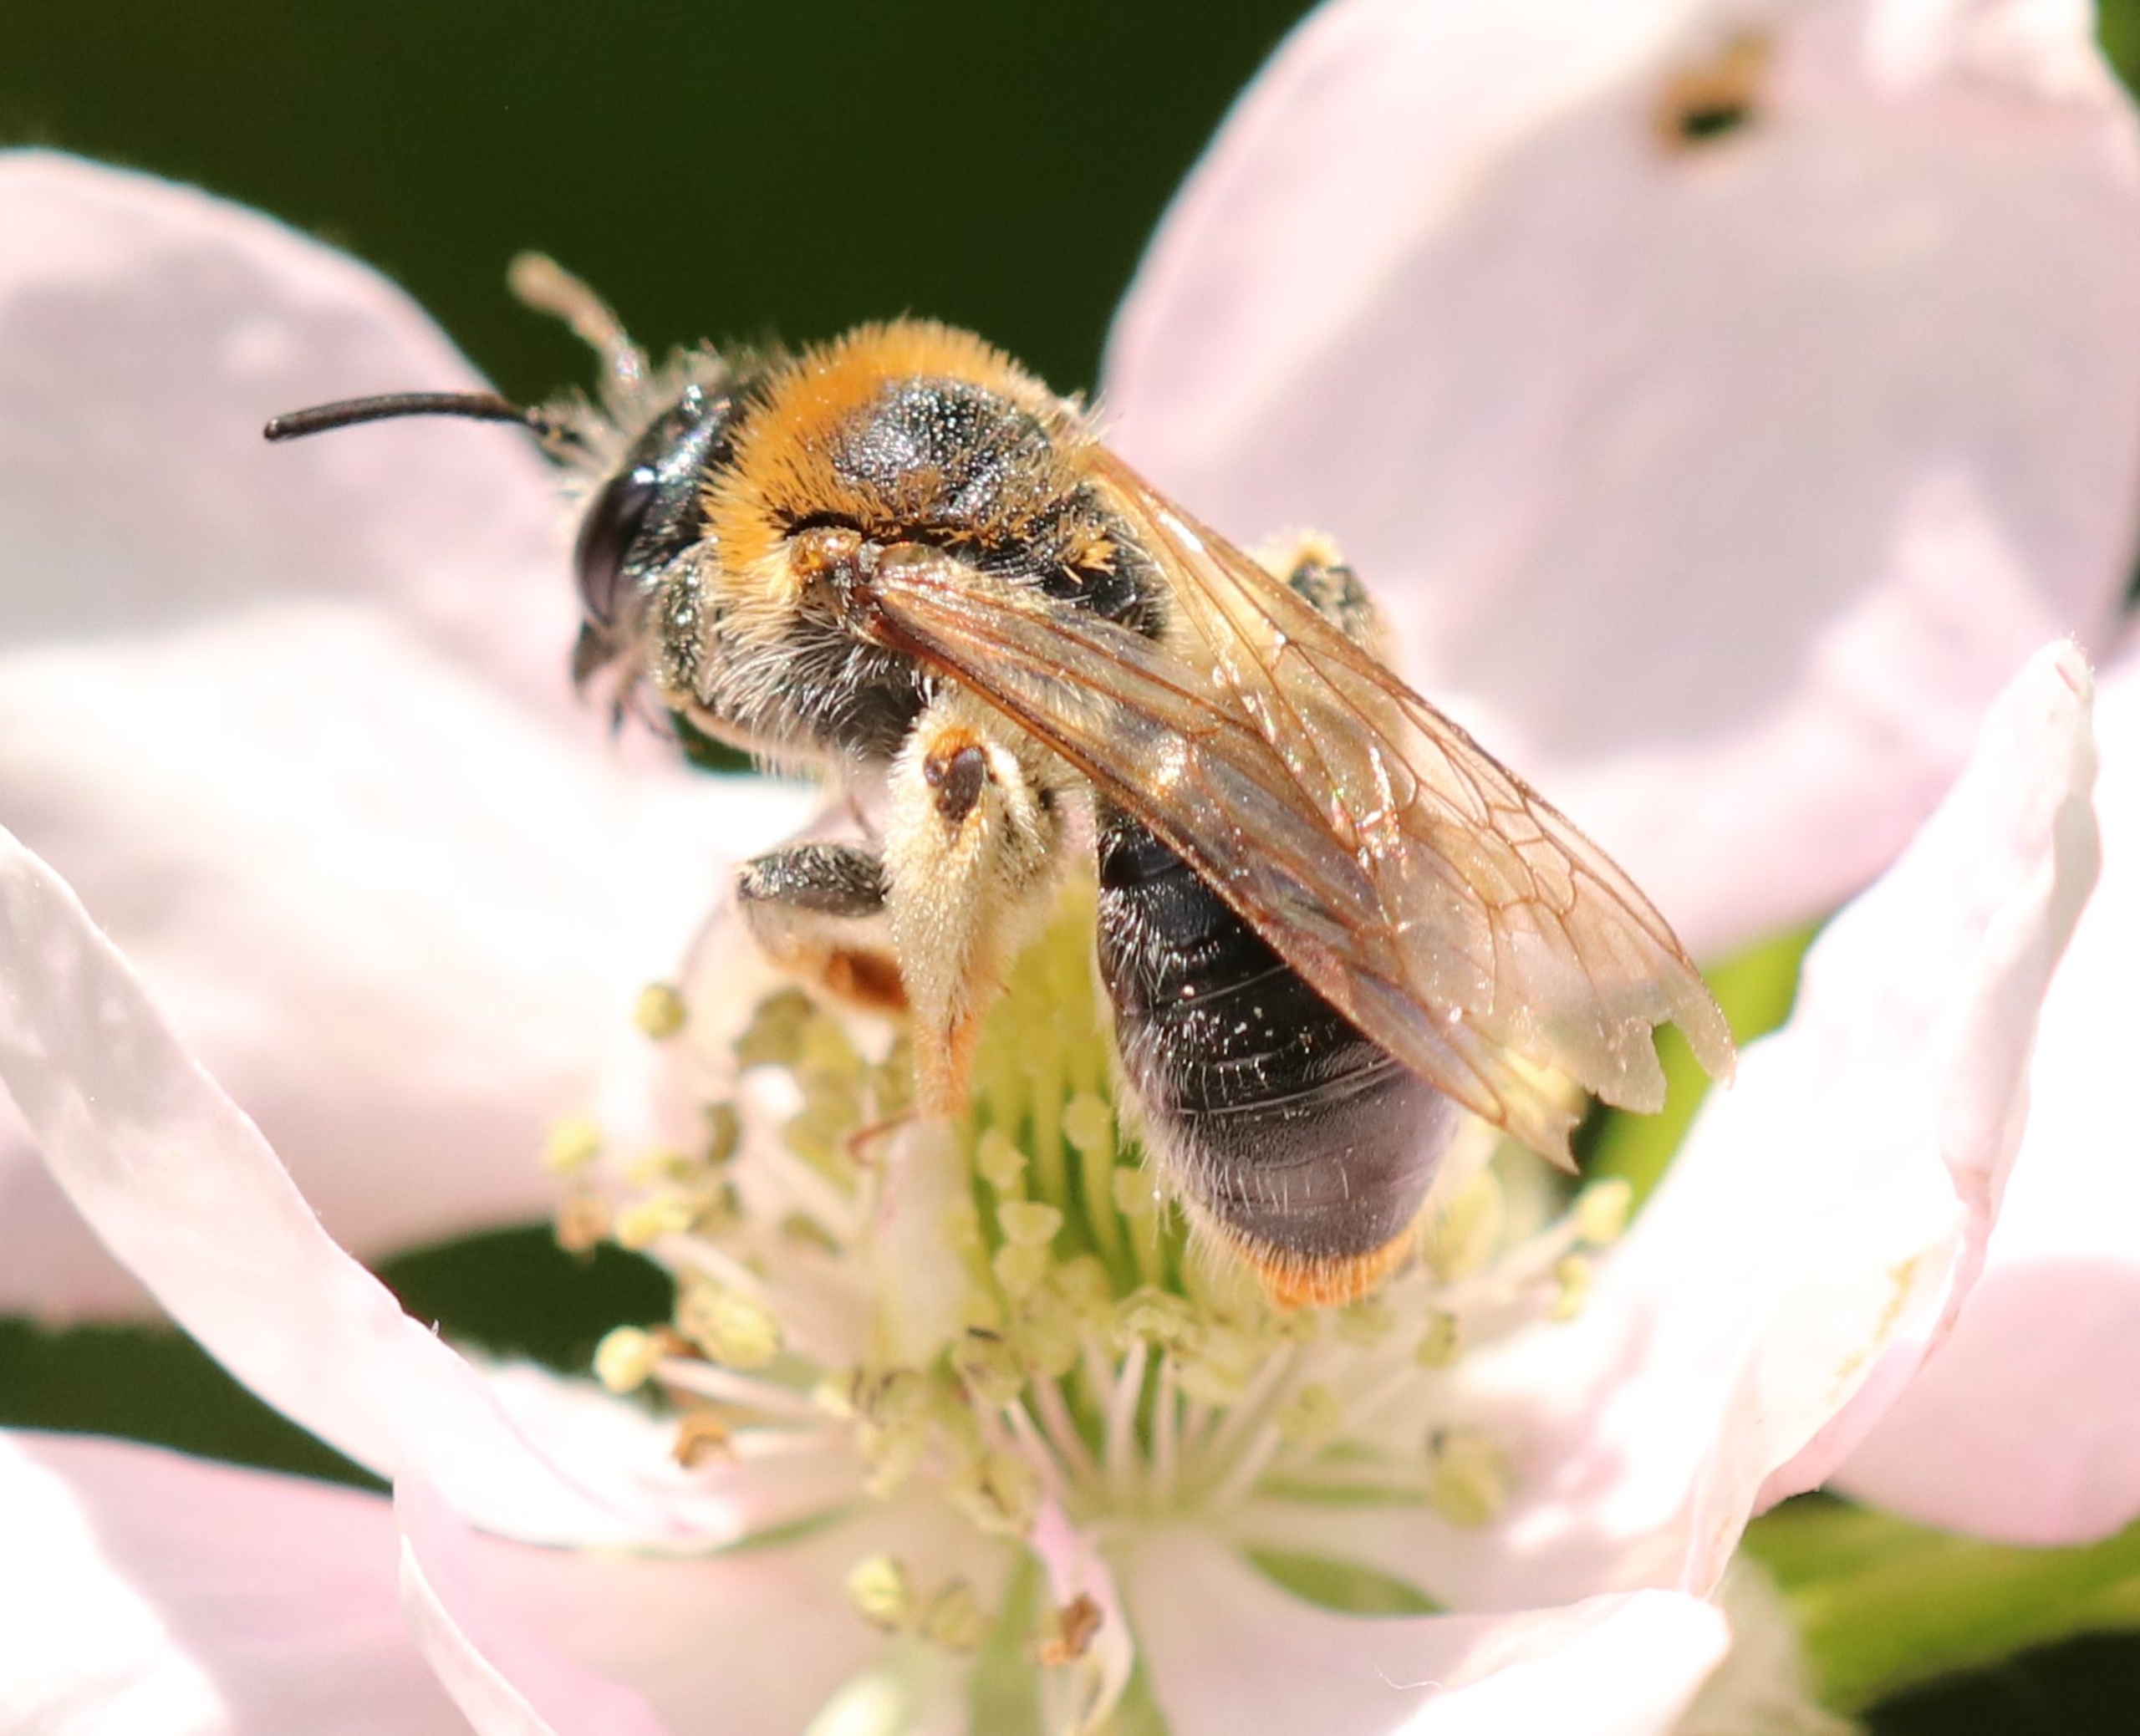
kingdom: Animalia
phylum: Arthropoda
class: Insecta
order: Hymenoptera
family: Andrenidae
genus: Andrena
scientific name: Andrena haemorrhoa
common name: Havejordbi
